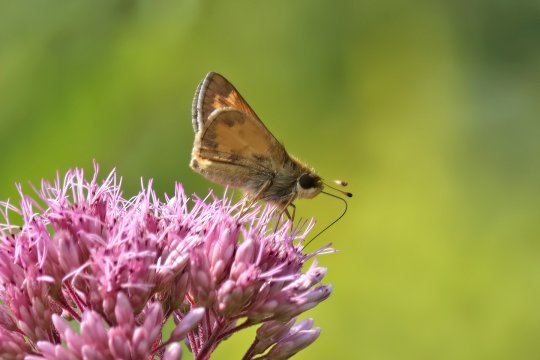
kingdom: Animalia
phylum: Arthropoda
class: Insecta
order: Lepidoptera
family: Hesperiidae
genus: Atalopedes
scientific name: Atalopedes campestris
